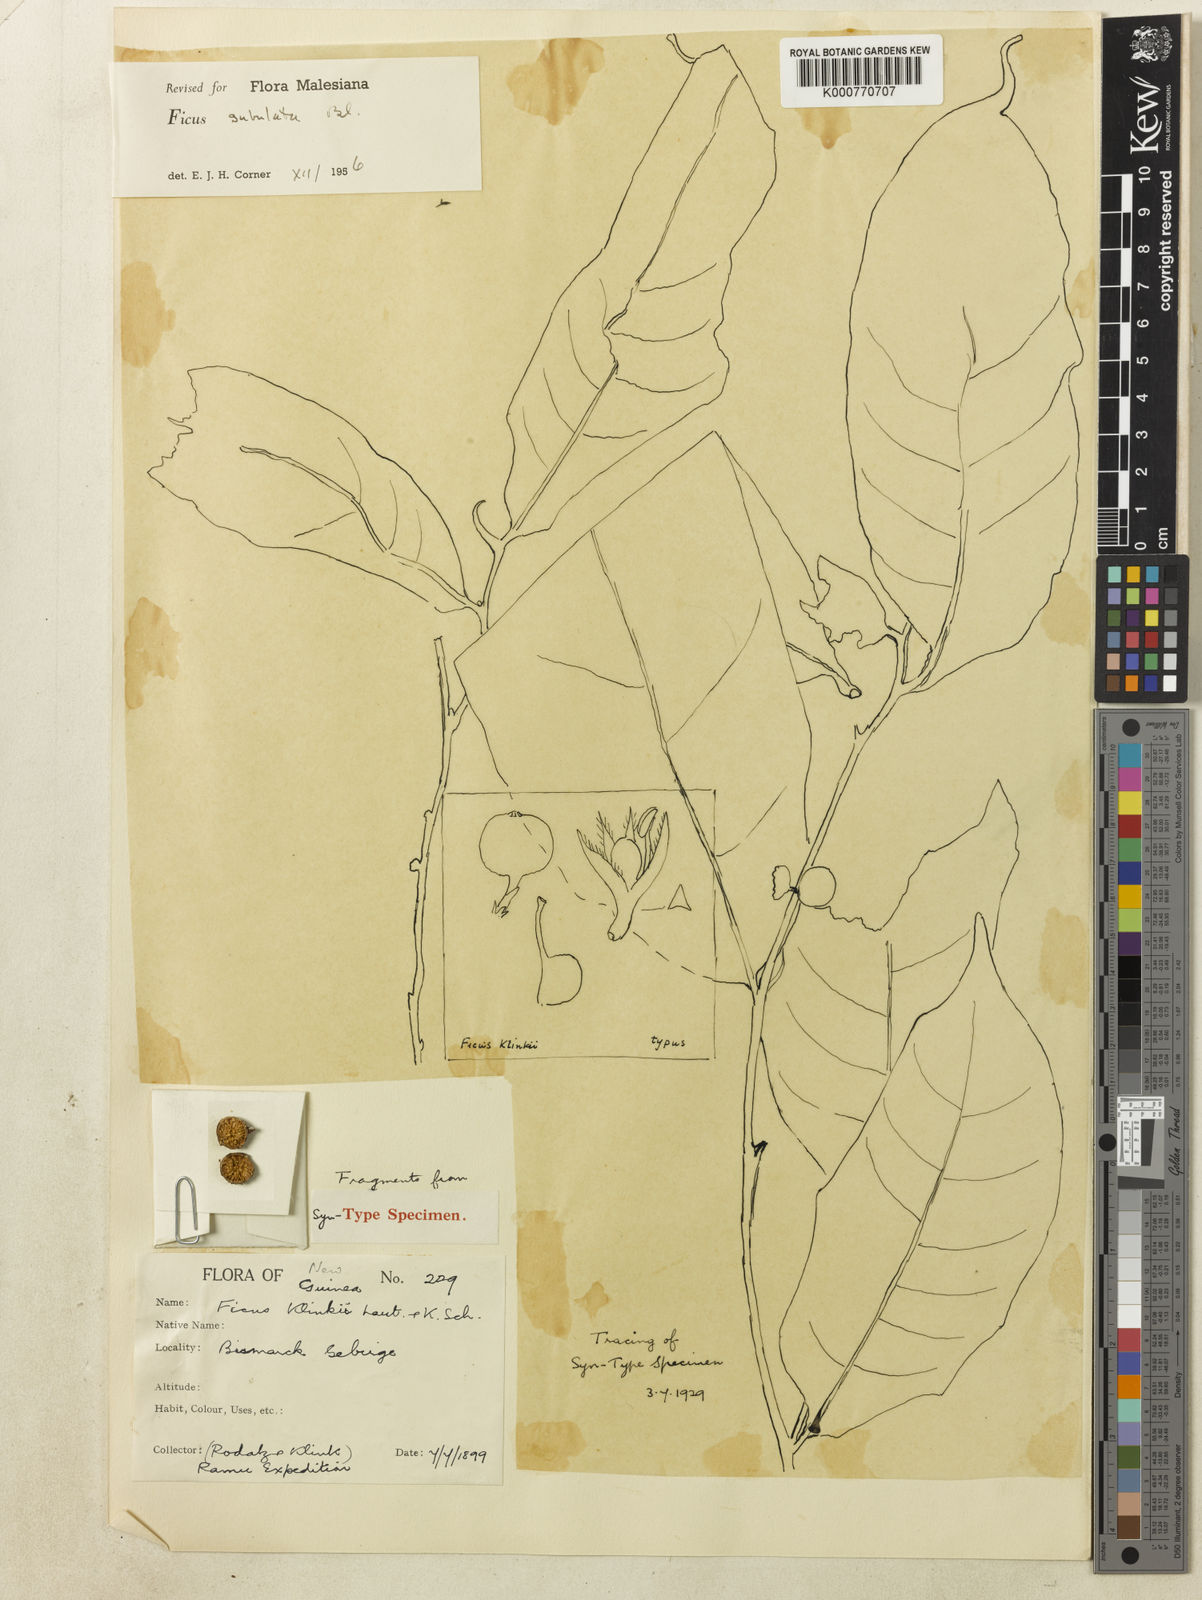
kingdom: Plantae
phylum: Tracheophyta
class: Magnoliopsida
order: Rosales
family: Moraceae
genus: Ficus
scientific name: Ficus subulata
